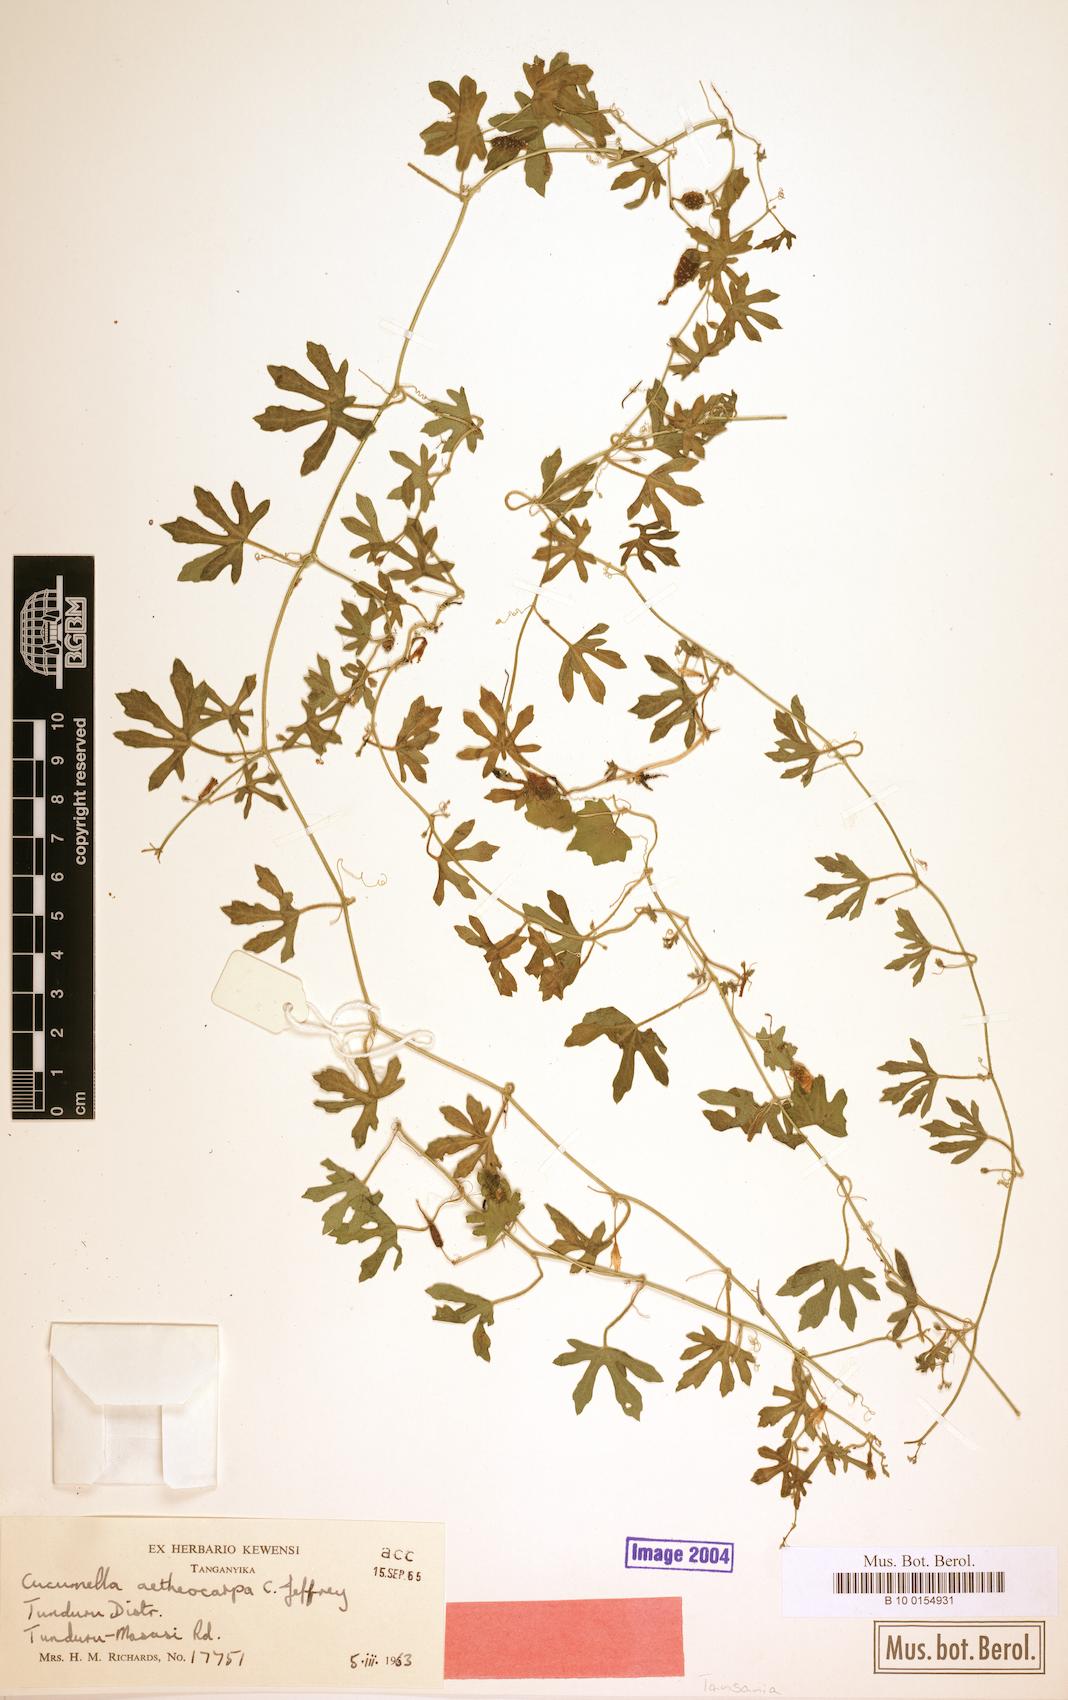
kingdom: Plantae
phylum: Tracheophyta
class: Magnoliopsida
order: Cucurbitales
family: Cucurbitaceae
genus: Cucumis
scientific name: Cucumis aetheocarpus
